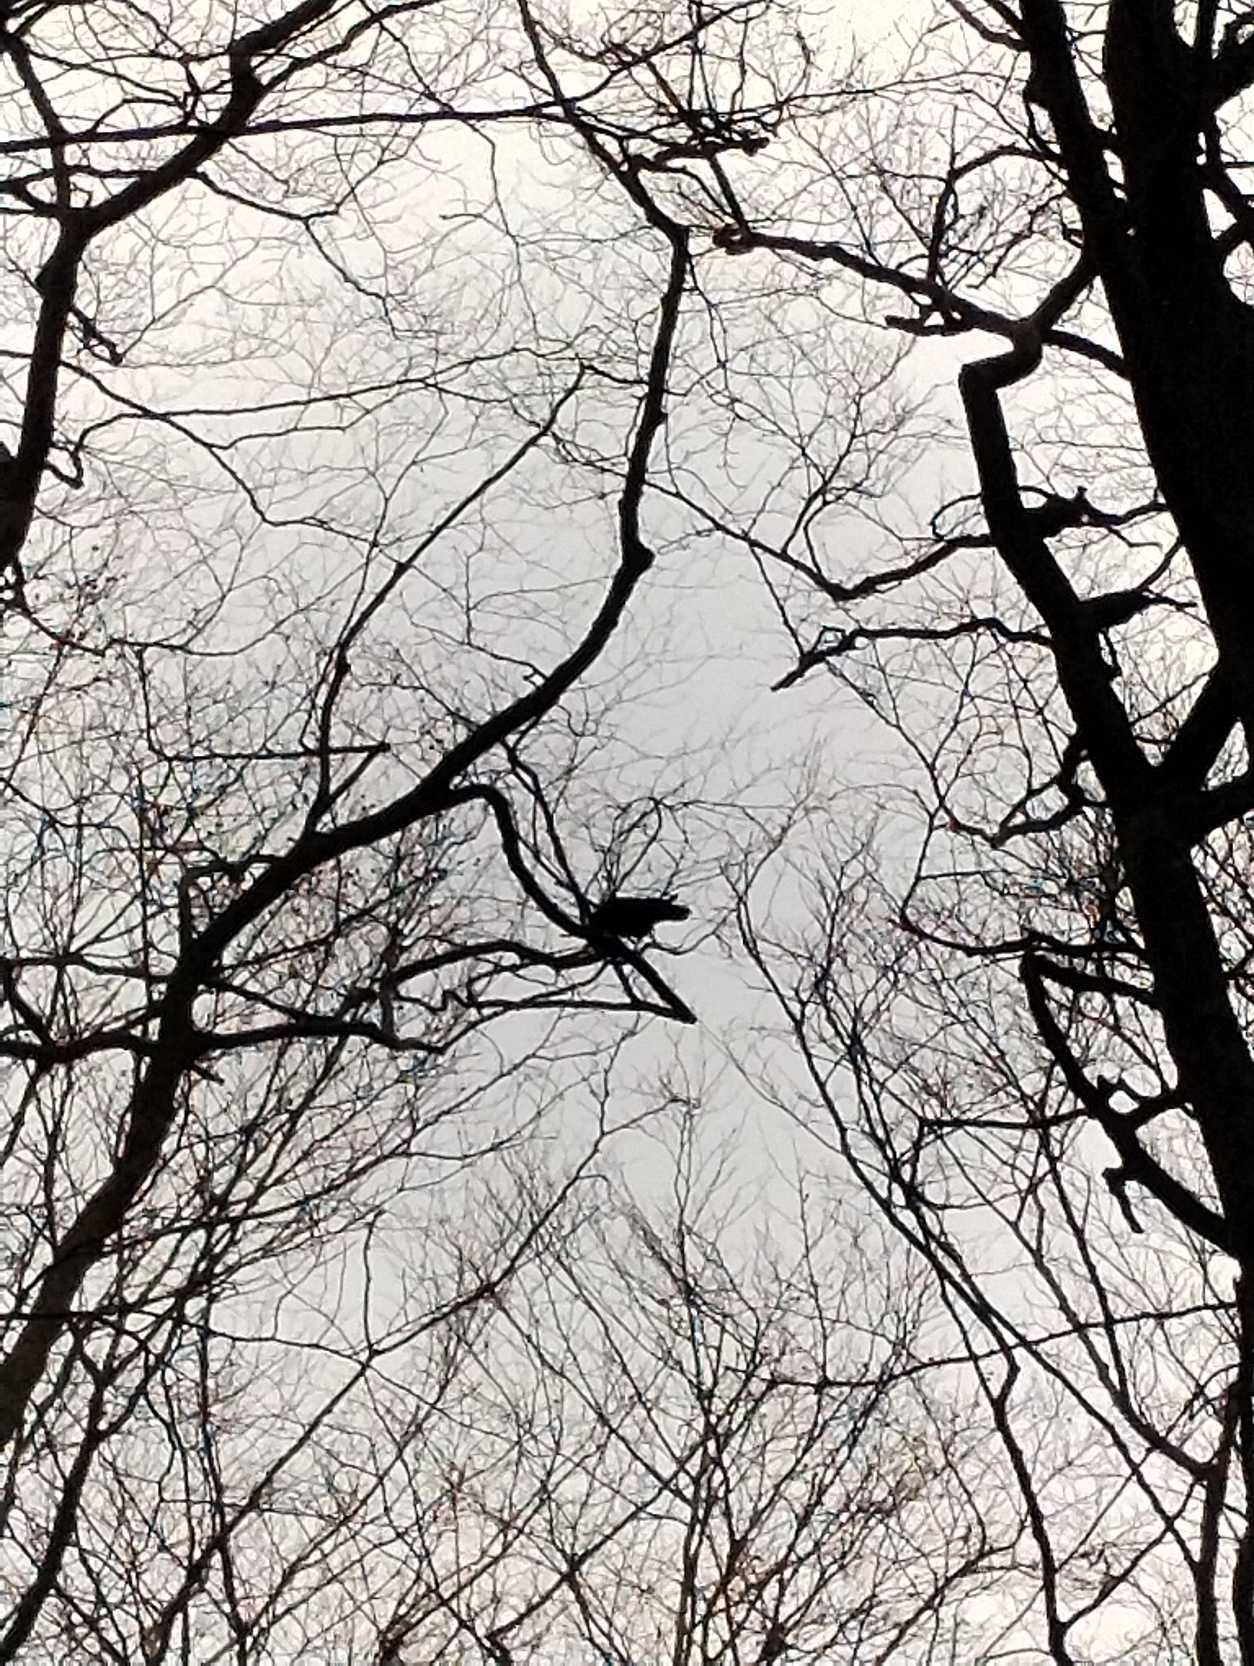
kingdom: Animalia
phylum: Chordata
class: Aves
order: Passeriformes
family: Corvidae
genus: Corvus
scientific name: Corvus corax
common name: Ravn
